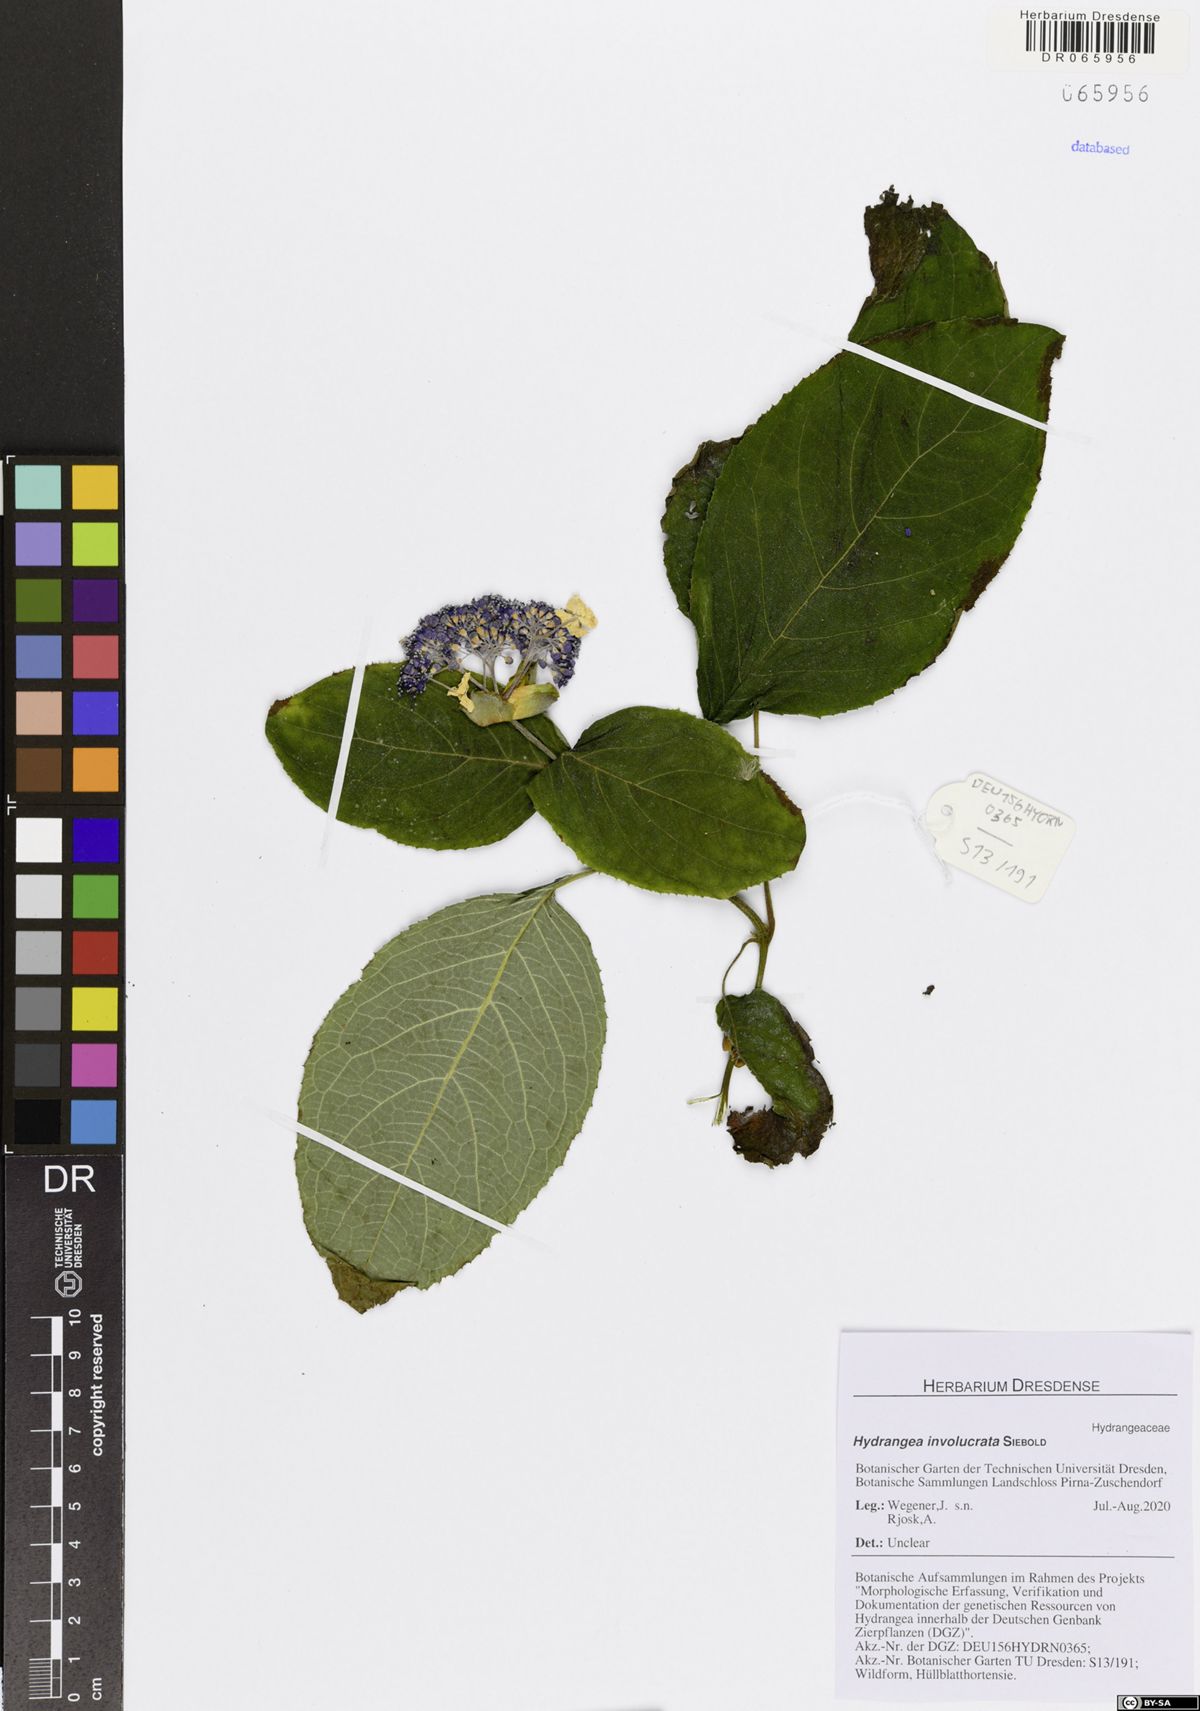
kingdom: Plantae
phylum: Tracheophyta
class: Magnoliopsida
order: Cornales
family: Hydrangeaceae
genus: Hydrangea
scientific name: Hydrangea involucrata
